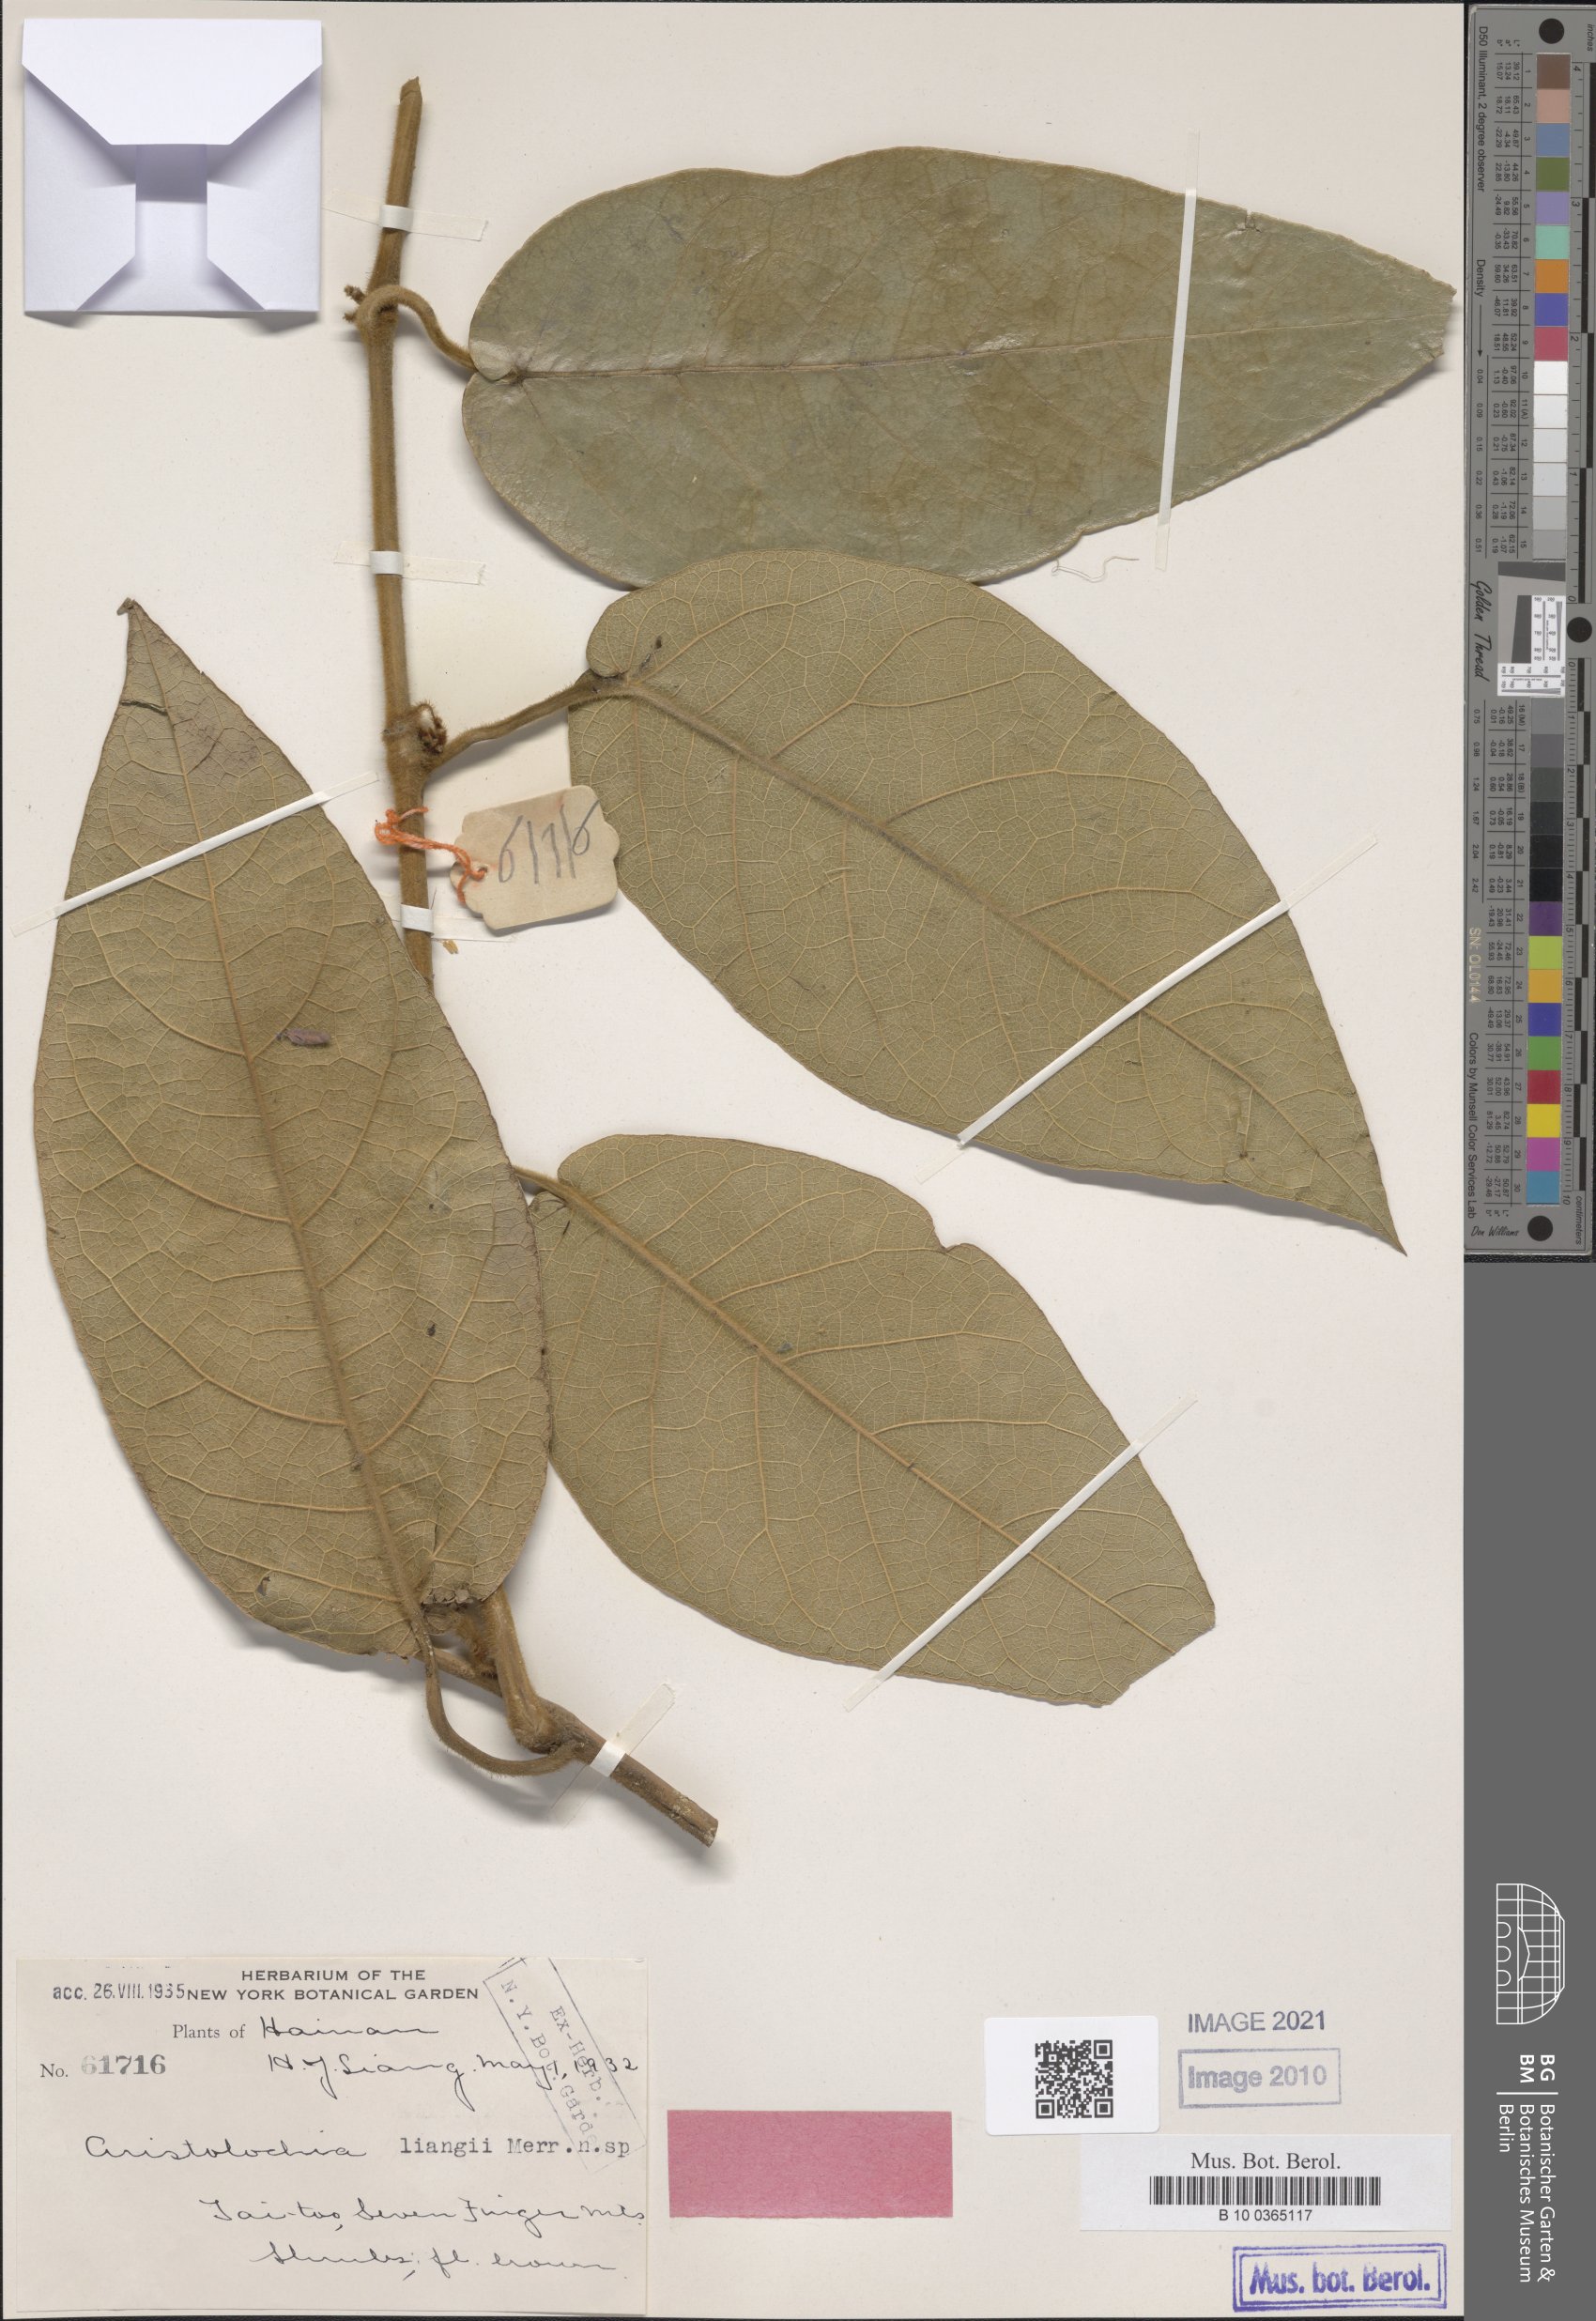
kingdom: Plantae
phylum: Tracheophyta
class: Magnoliopsida
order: Piperales
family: Aristolochiaceae
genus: Aristolochia
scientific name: Aristolochia
